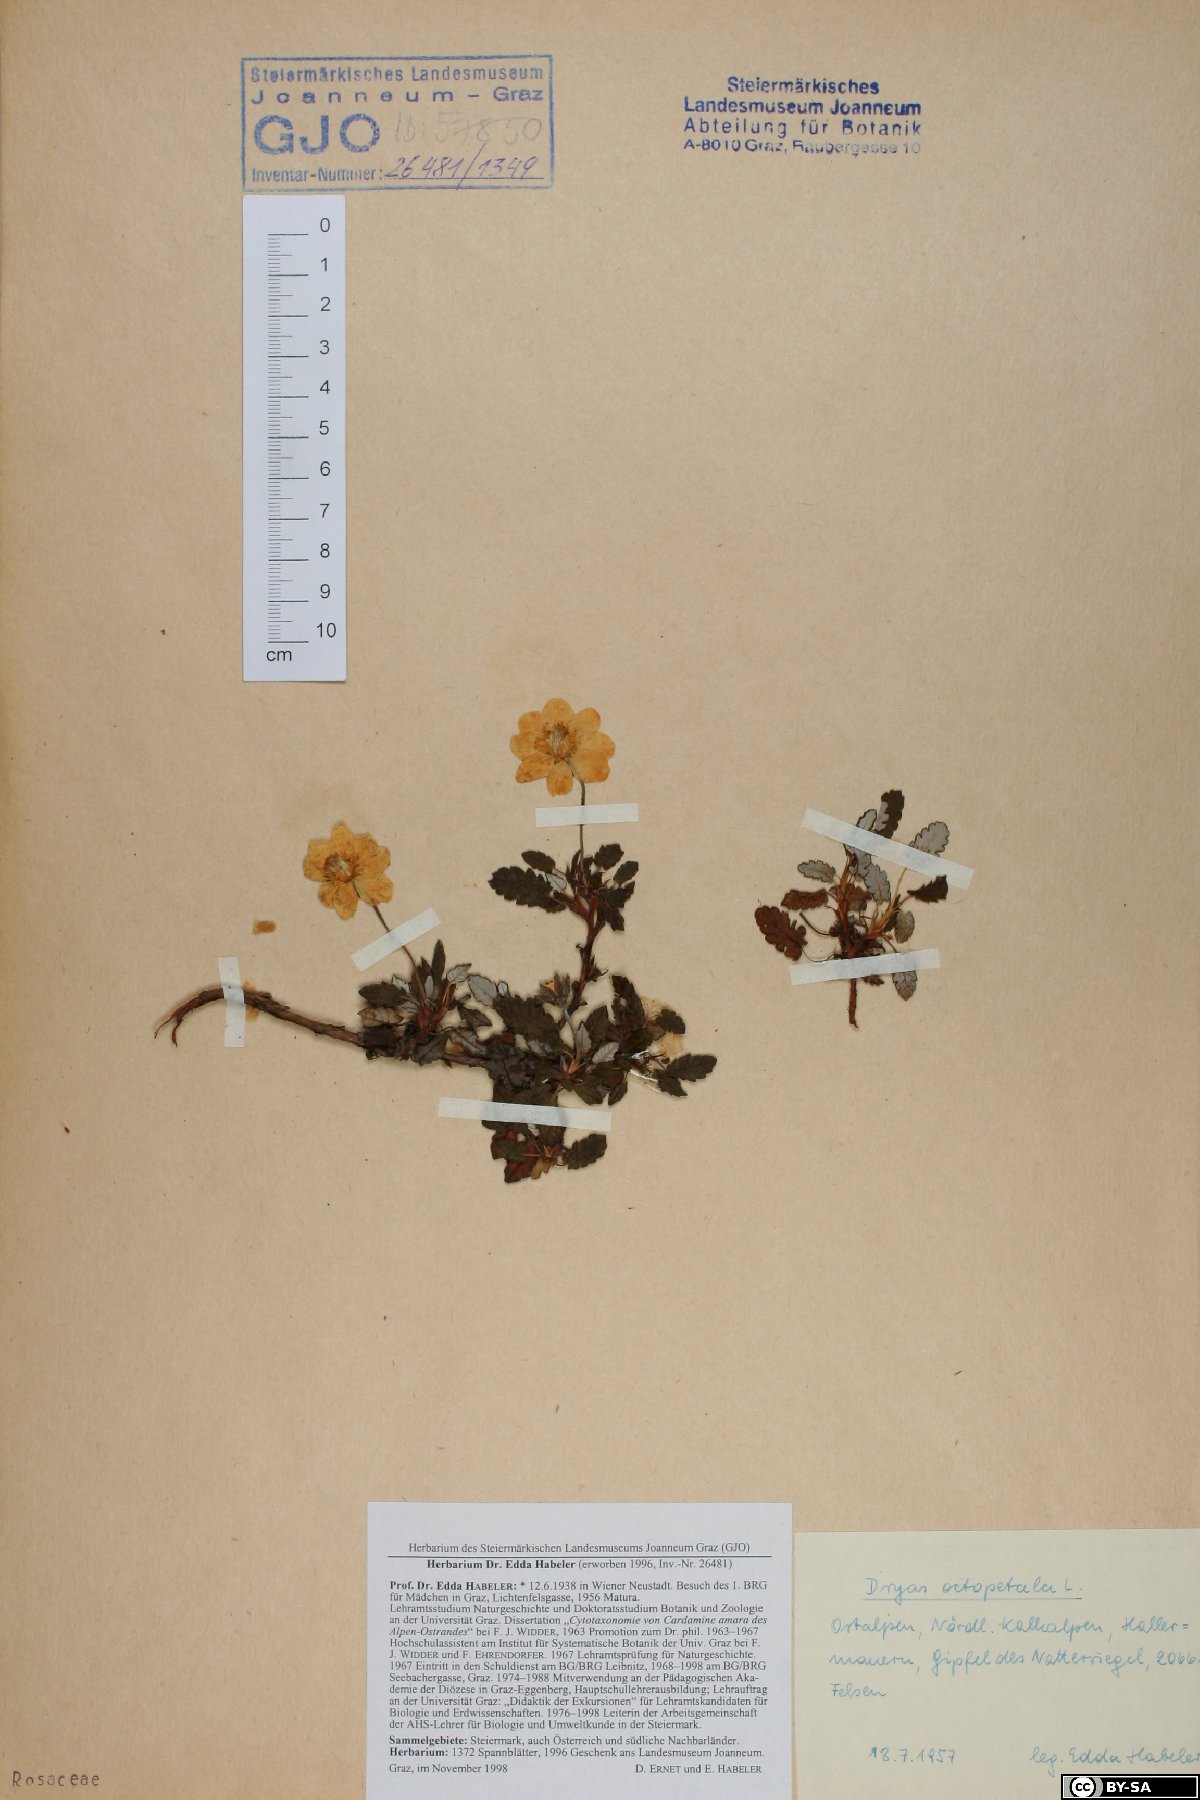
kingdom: Plantae
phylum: Tracheophyta
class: Magnoliopsida
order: Rosales
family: Rosaceae
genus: Dryas
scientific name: Dryas octopetala
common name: Eight-petal mountain-avens
